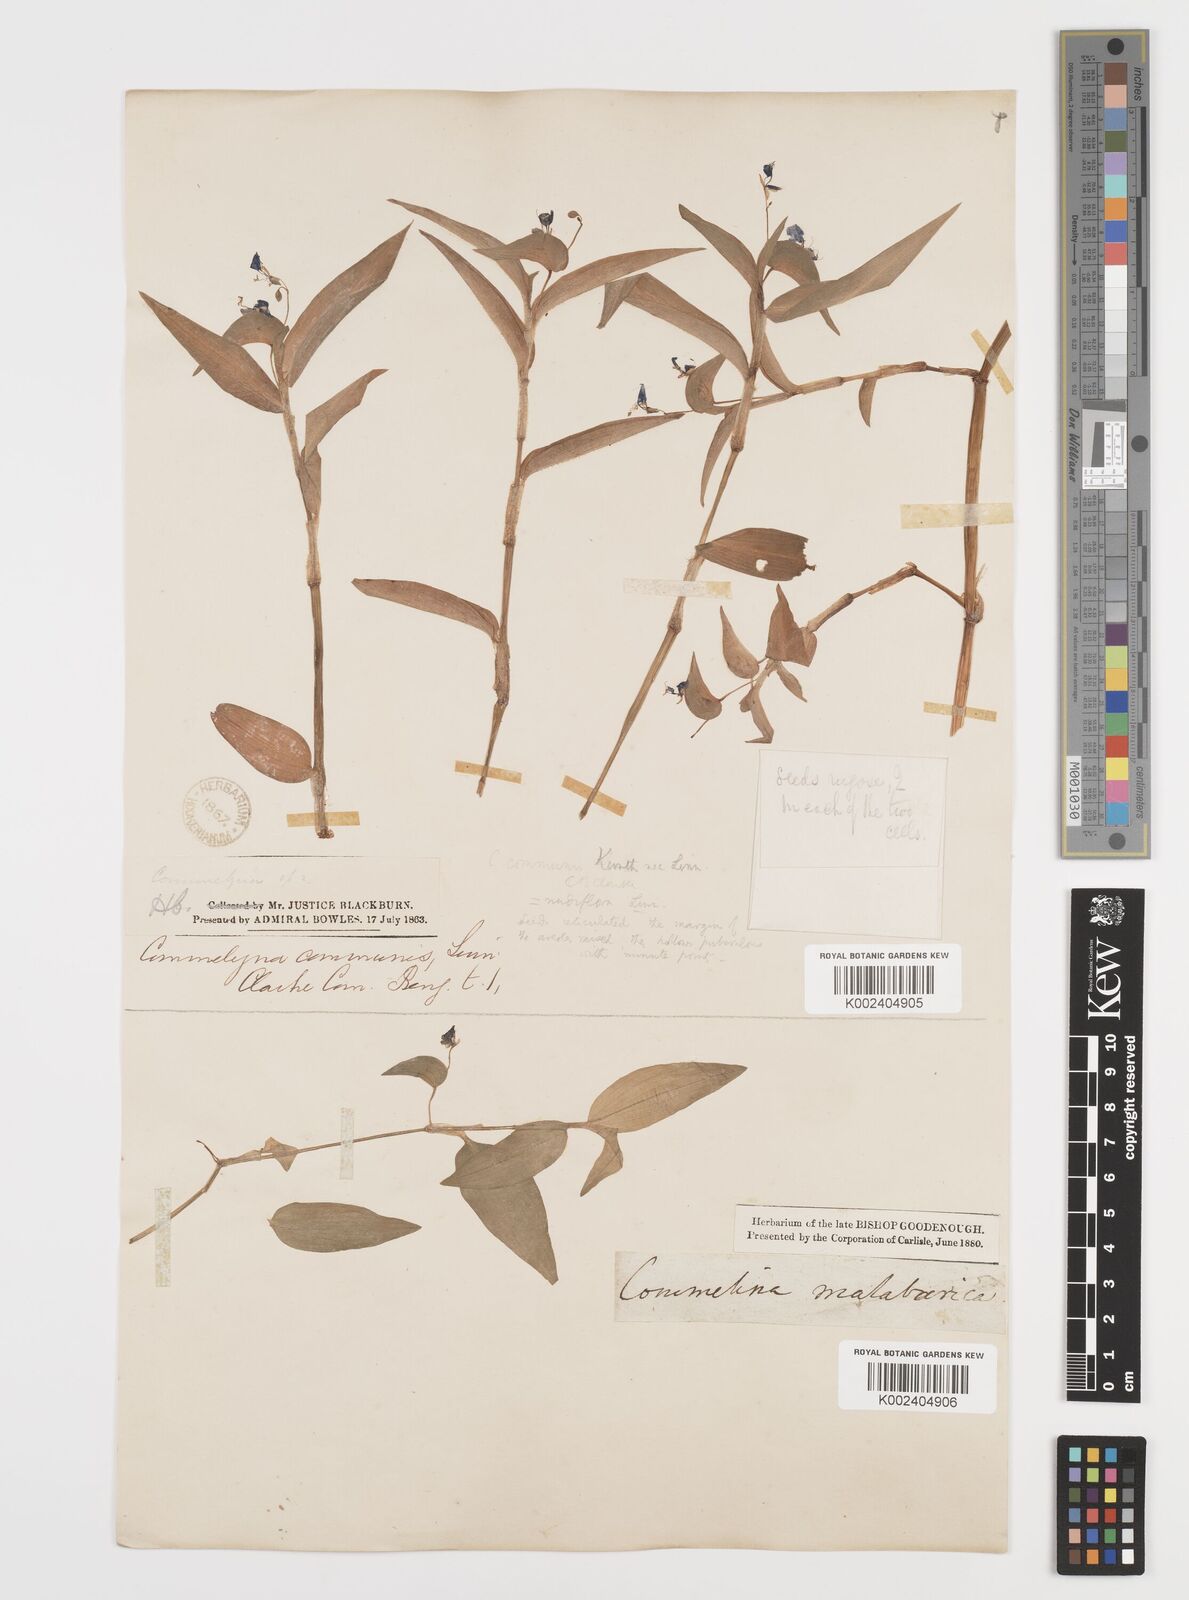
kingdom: Plantae
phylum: Tracheophyta
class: Liliopsida
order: Commelinales
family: Commelinaceae
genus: Commelina
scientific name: Commelina diffusa
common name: Climbing dayflower
